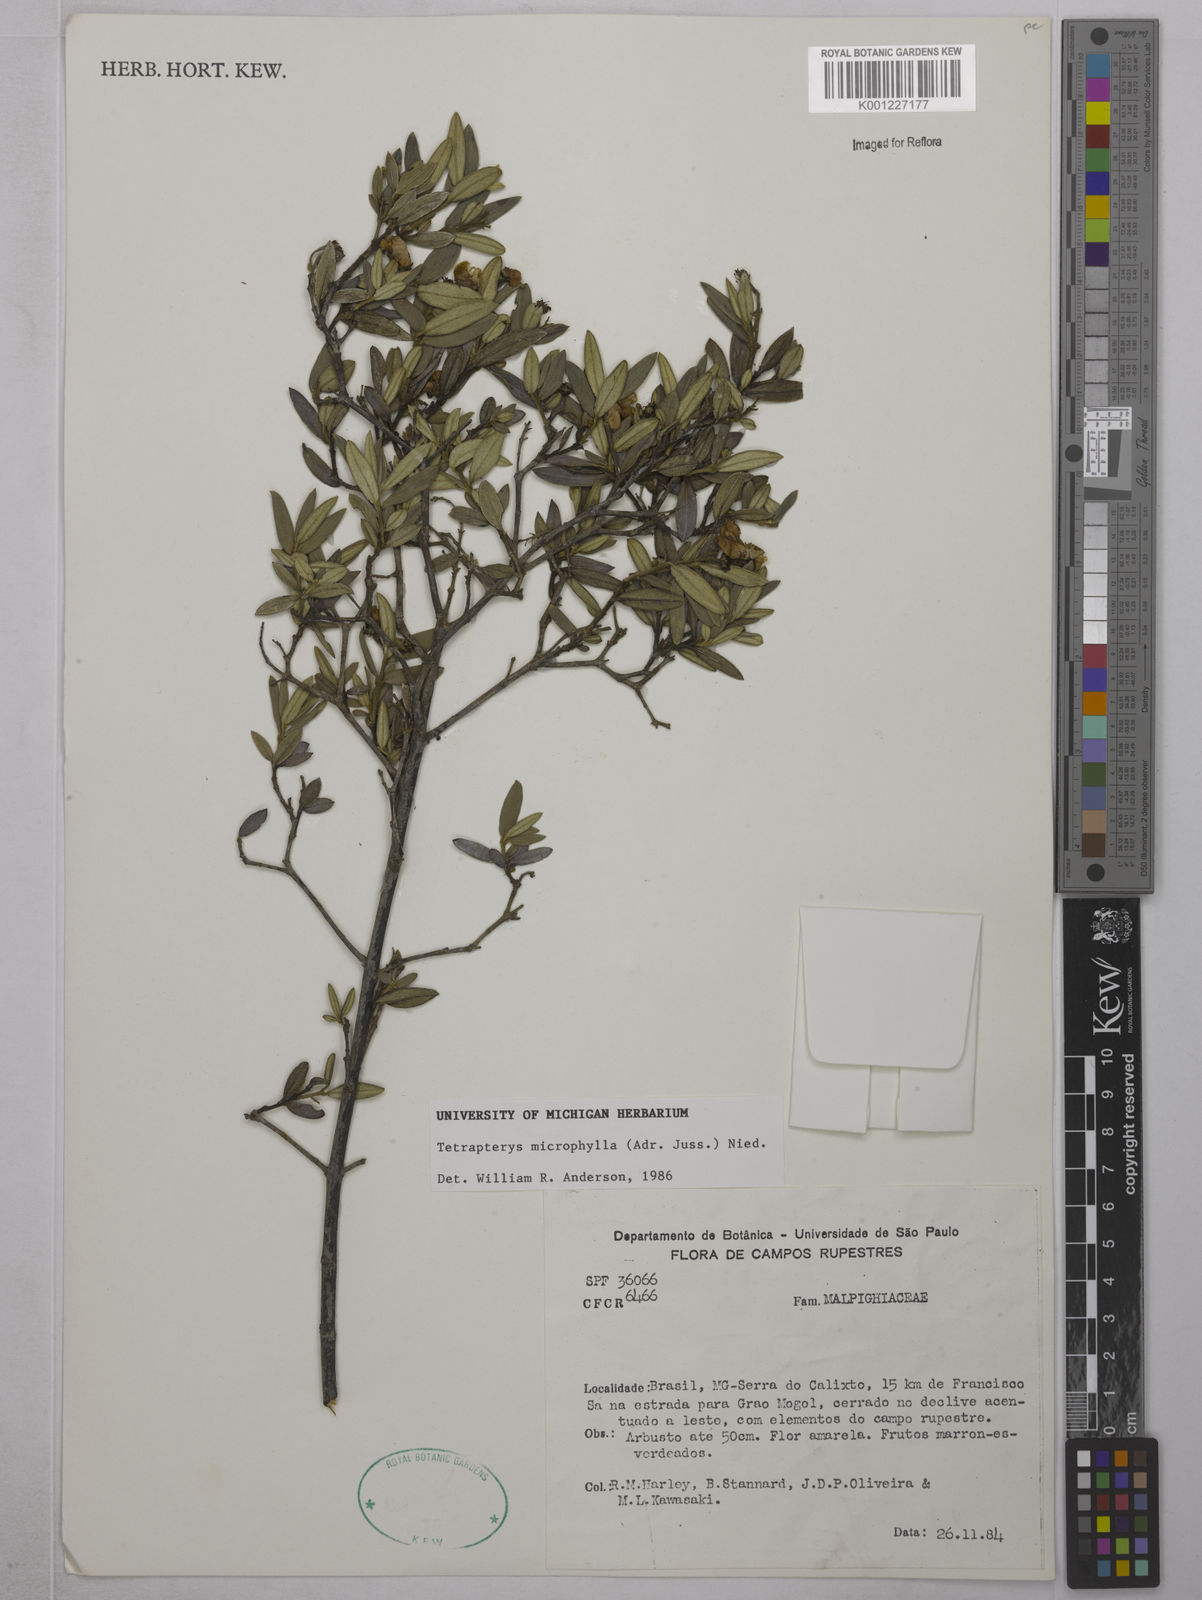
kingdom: Plantae
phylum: Tracheophyta
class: Magnoliopsida
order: Malpighiales
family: Malpighiaceae
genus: Glicophyllum
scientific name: Glicophyllum microphyllum
